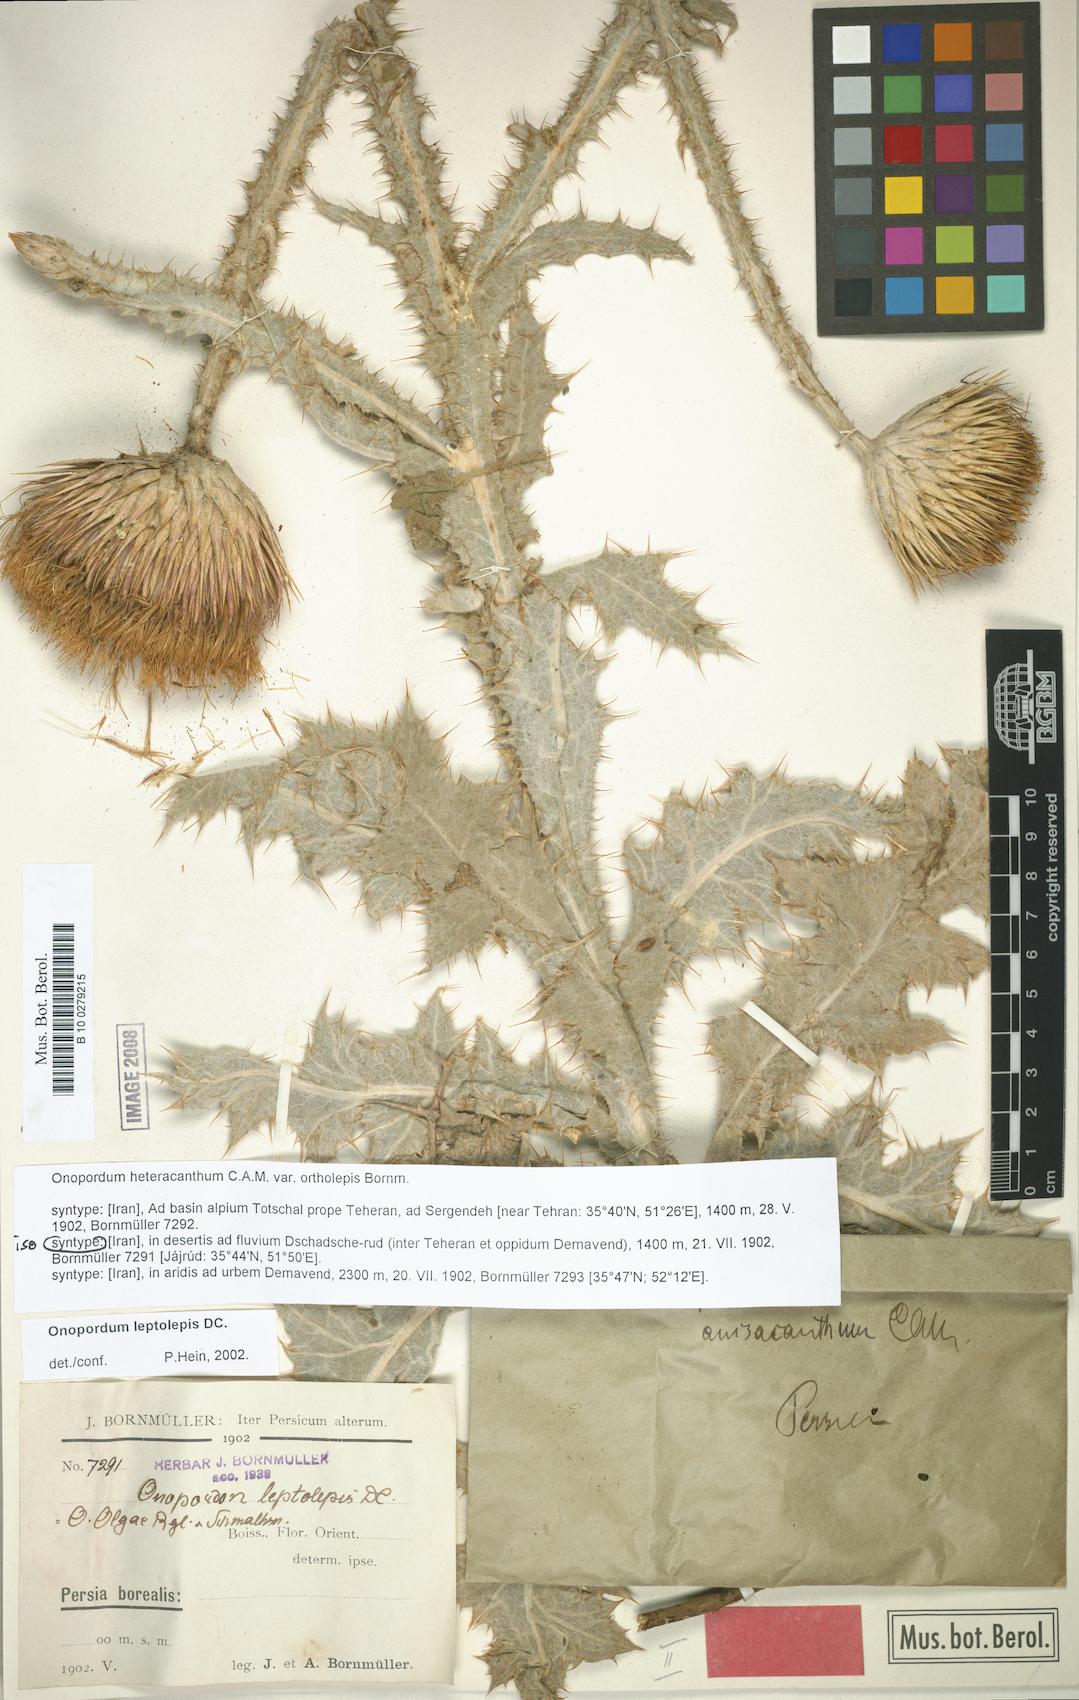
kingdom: Plantae
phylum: Tracheophyta
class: Magnoliopsida
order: Asterales
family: Asteraceae
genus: Onopordum
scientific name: Onopordum leptolepis
